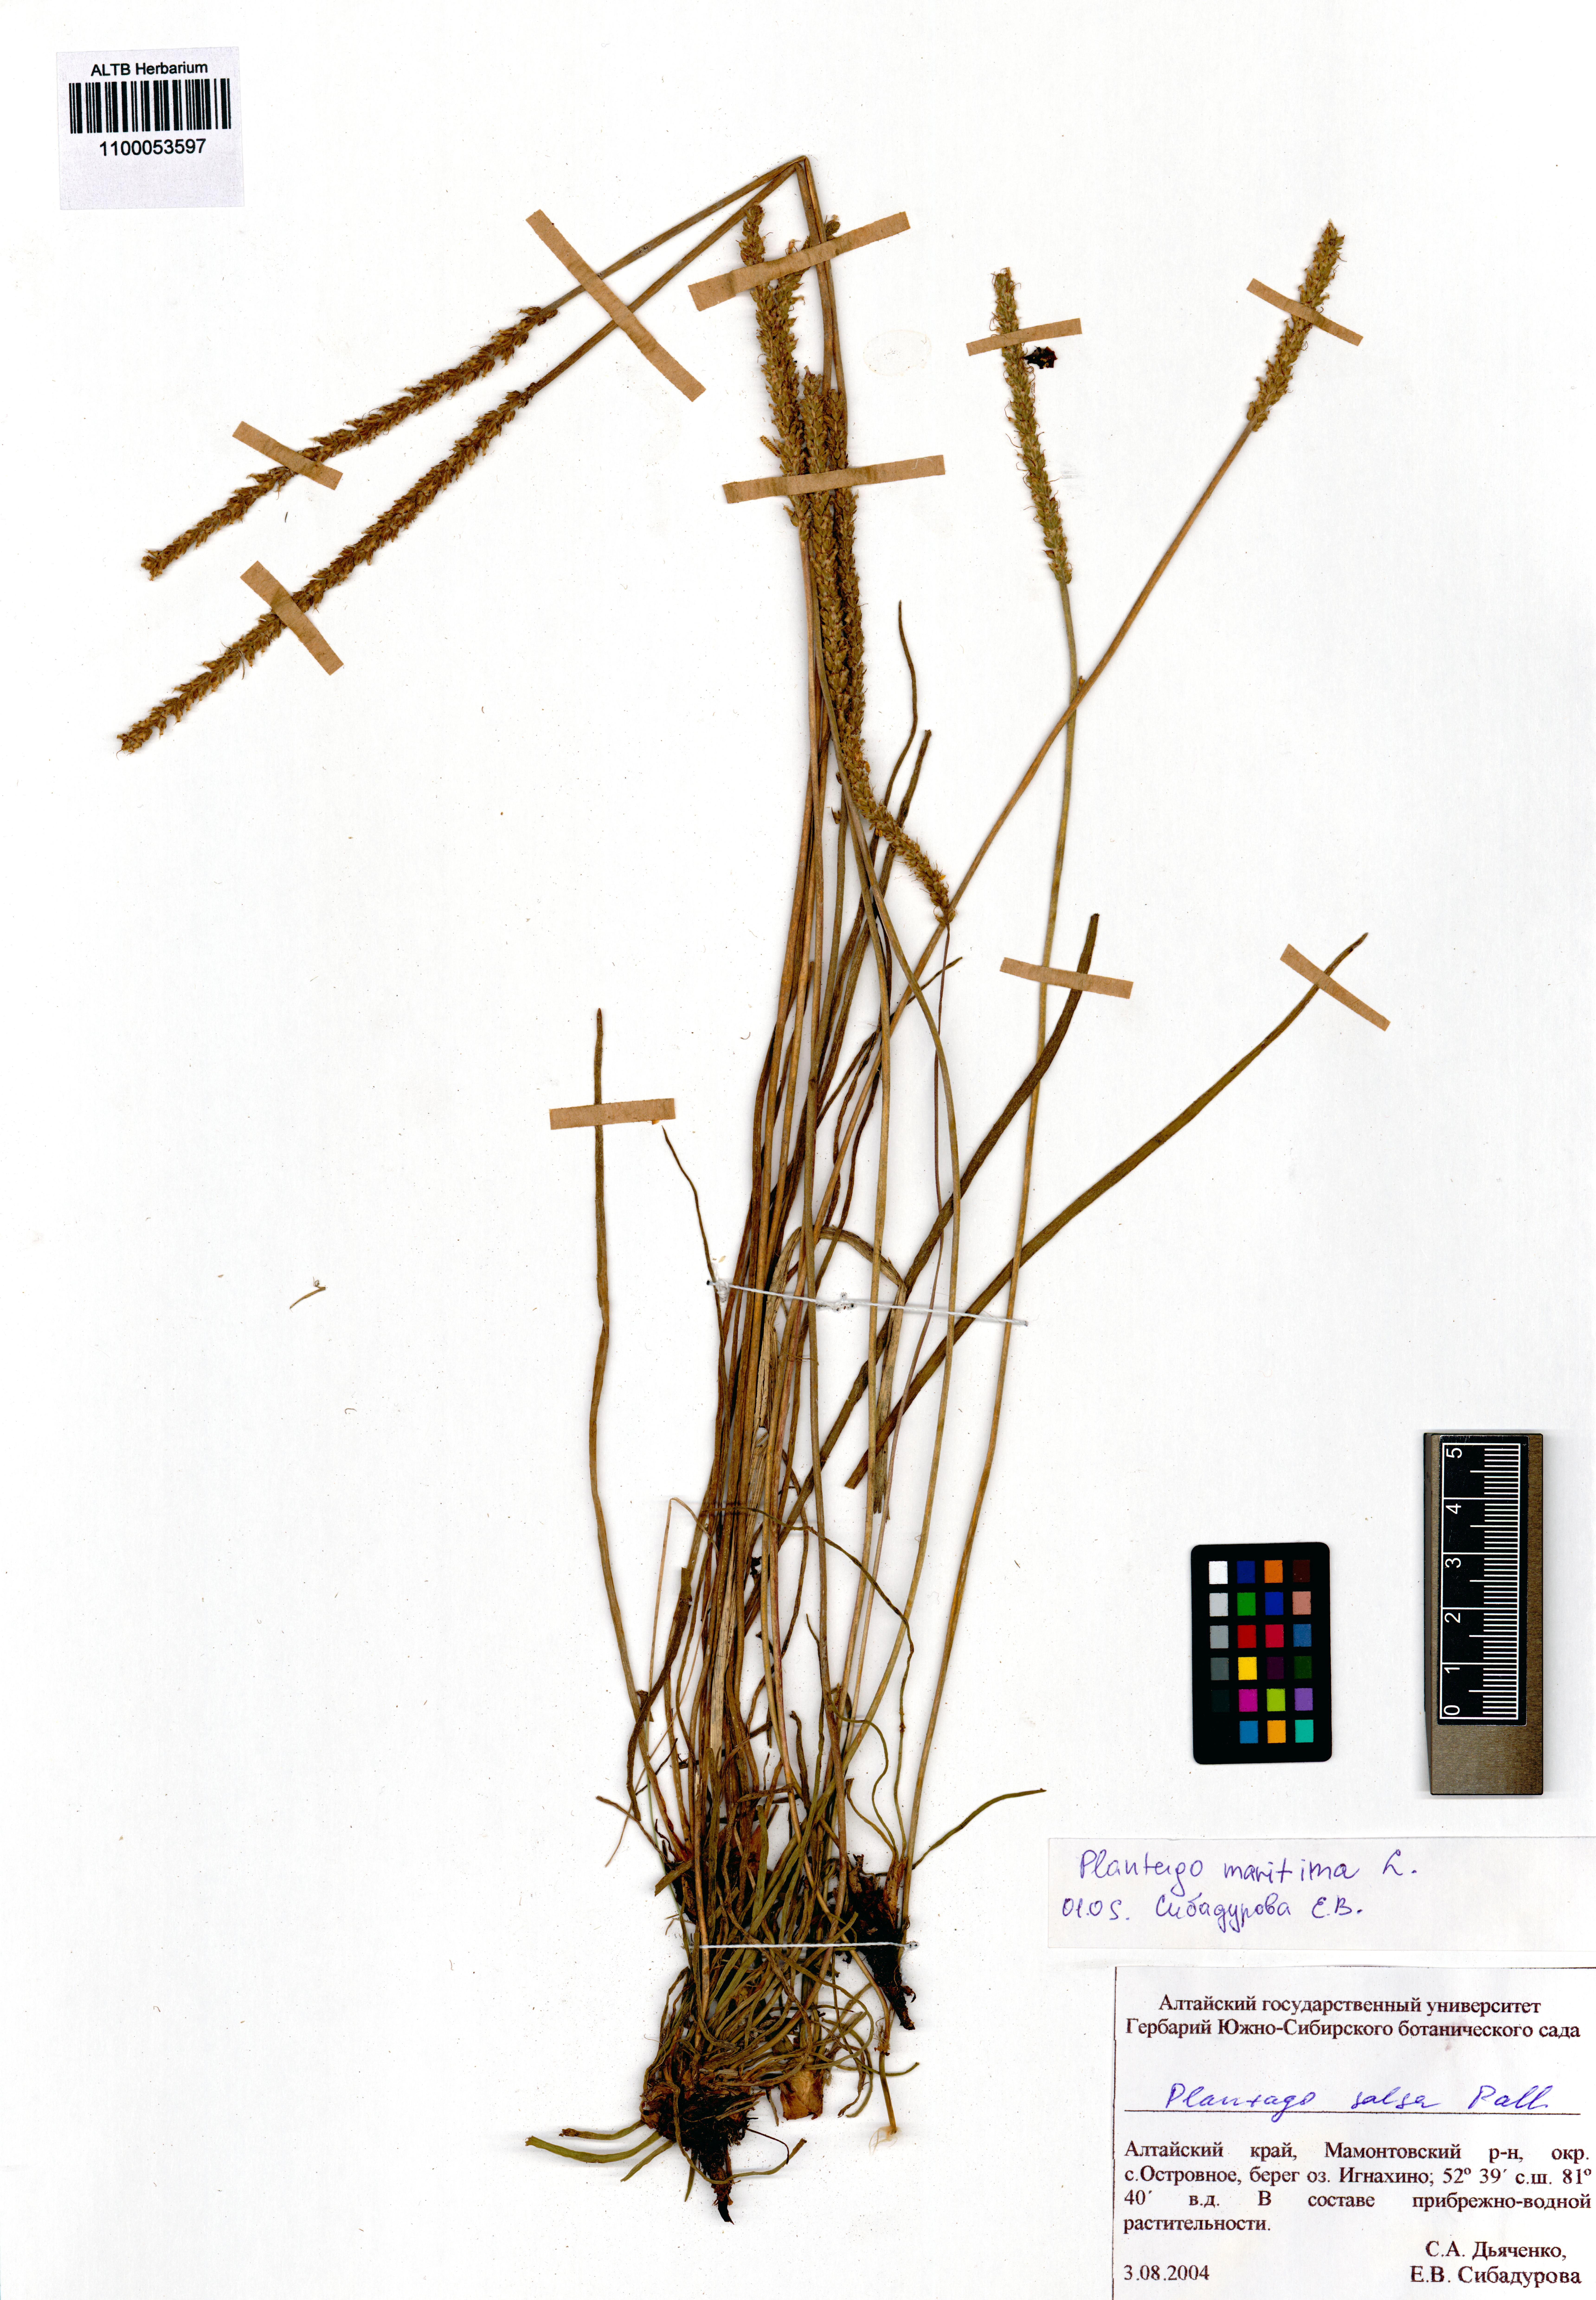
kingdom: Plantae
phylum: Tracheophyta
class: Magnoliopsida
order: Lamiales
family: Plantaginaceae
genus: Plantago
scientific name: Plantago maritima
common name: Sea plantain
